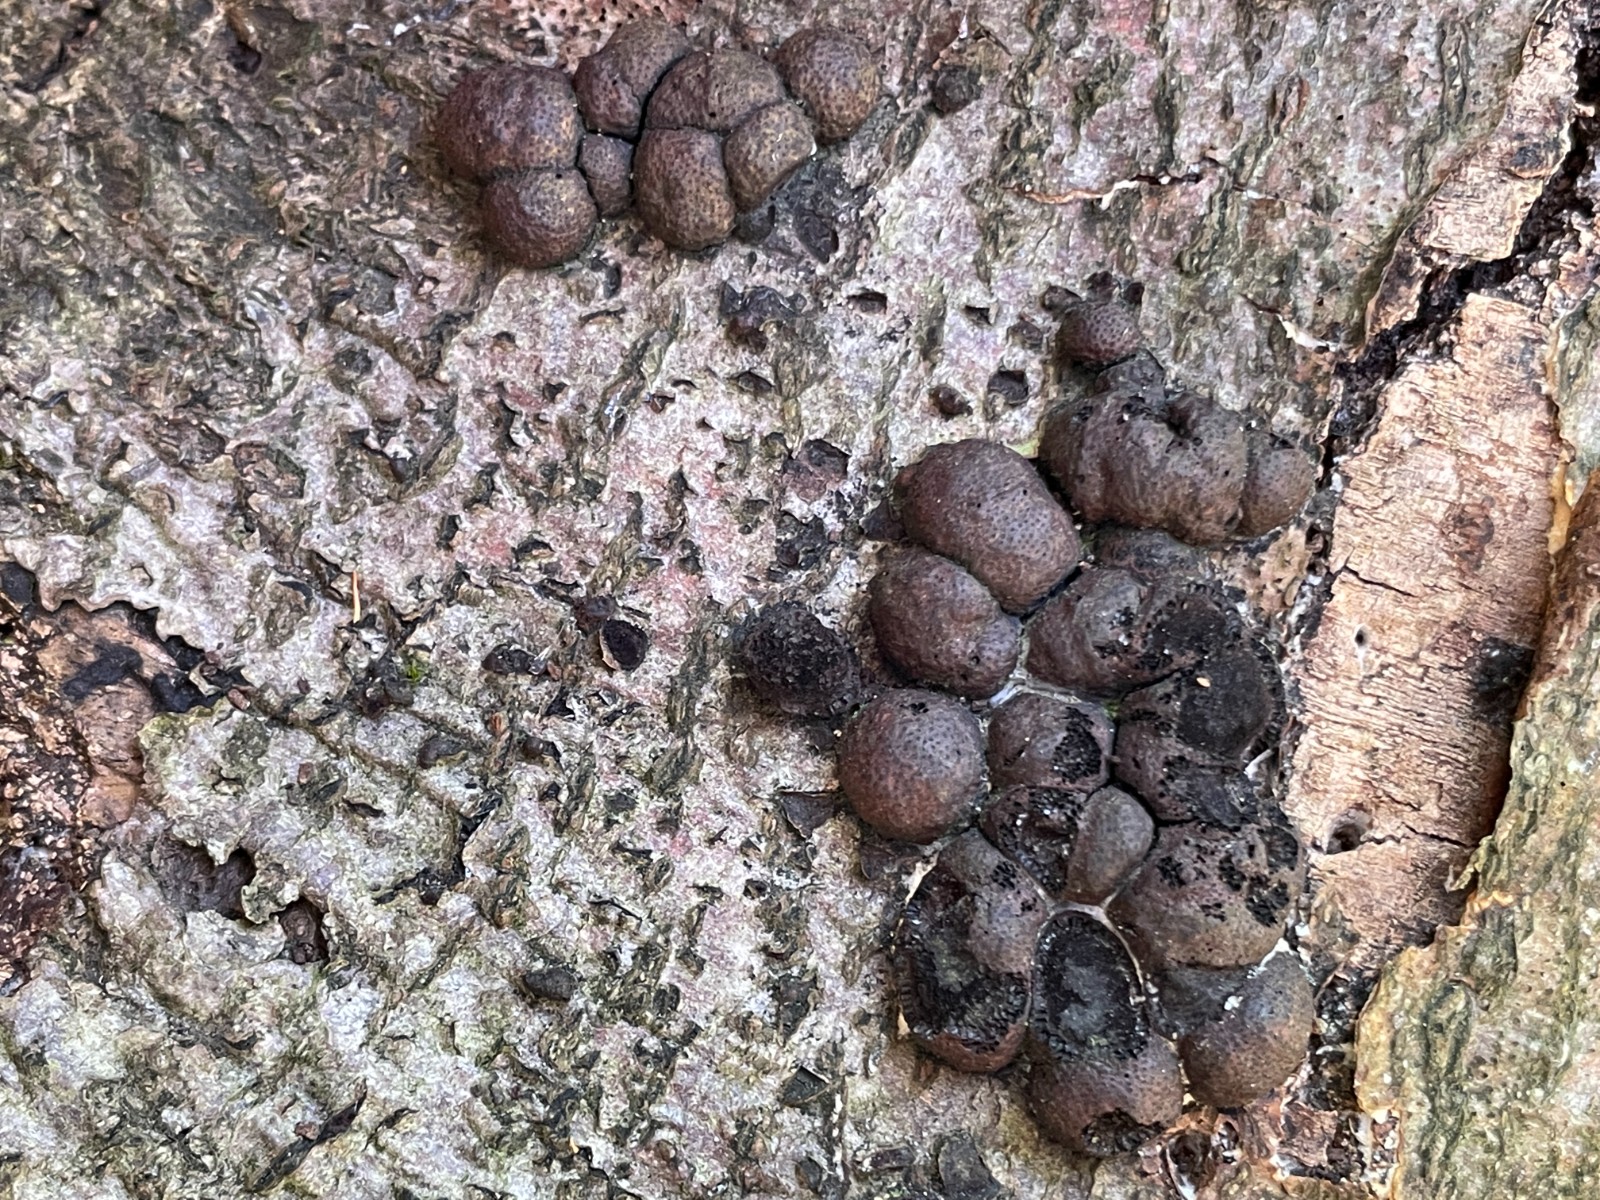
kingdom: Fungi
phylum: Ascomycota
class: Sordariomycetes
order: Xylariales
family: Hypoxylaceae
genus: Hypoxylon
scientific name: Hypoxylon fragiforme
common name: kuljordbær
